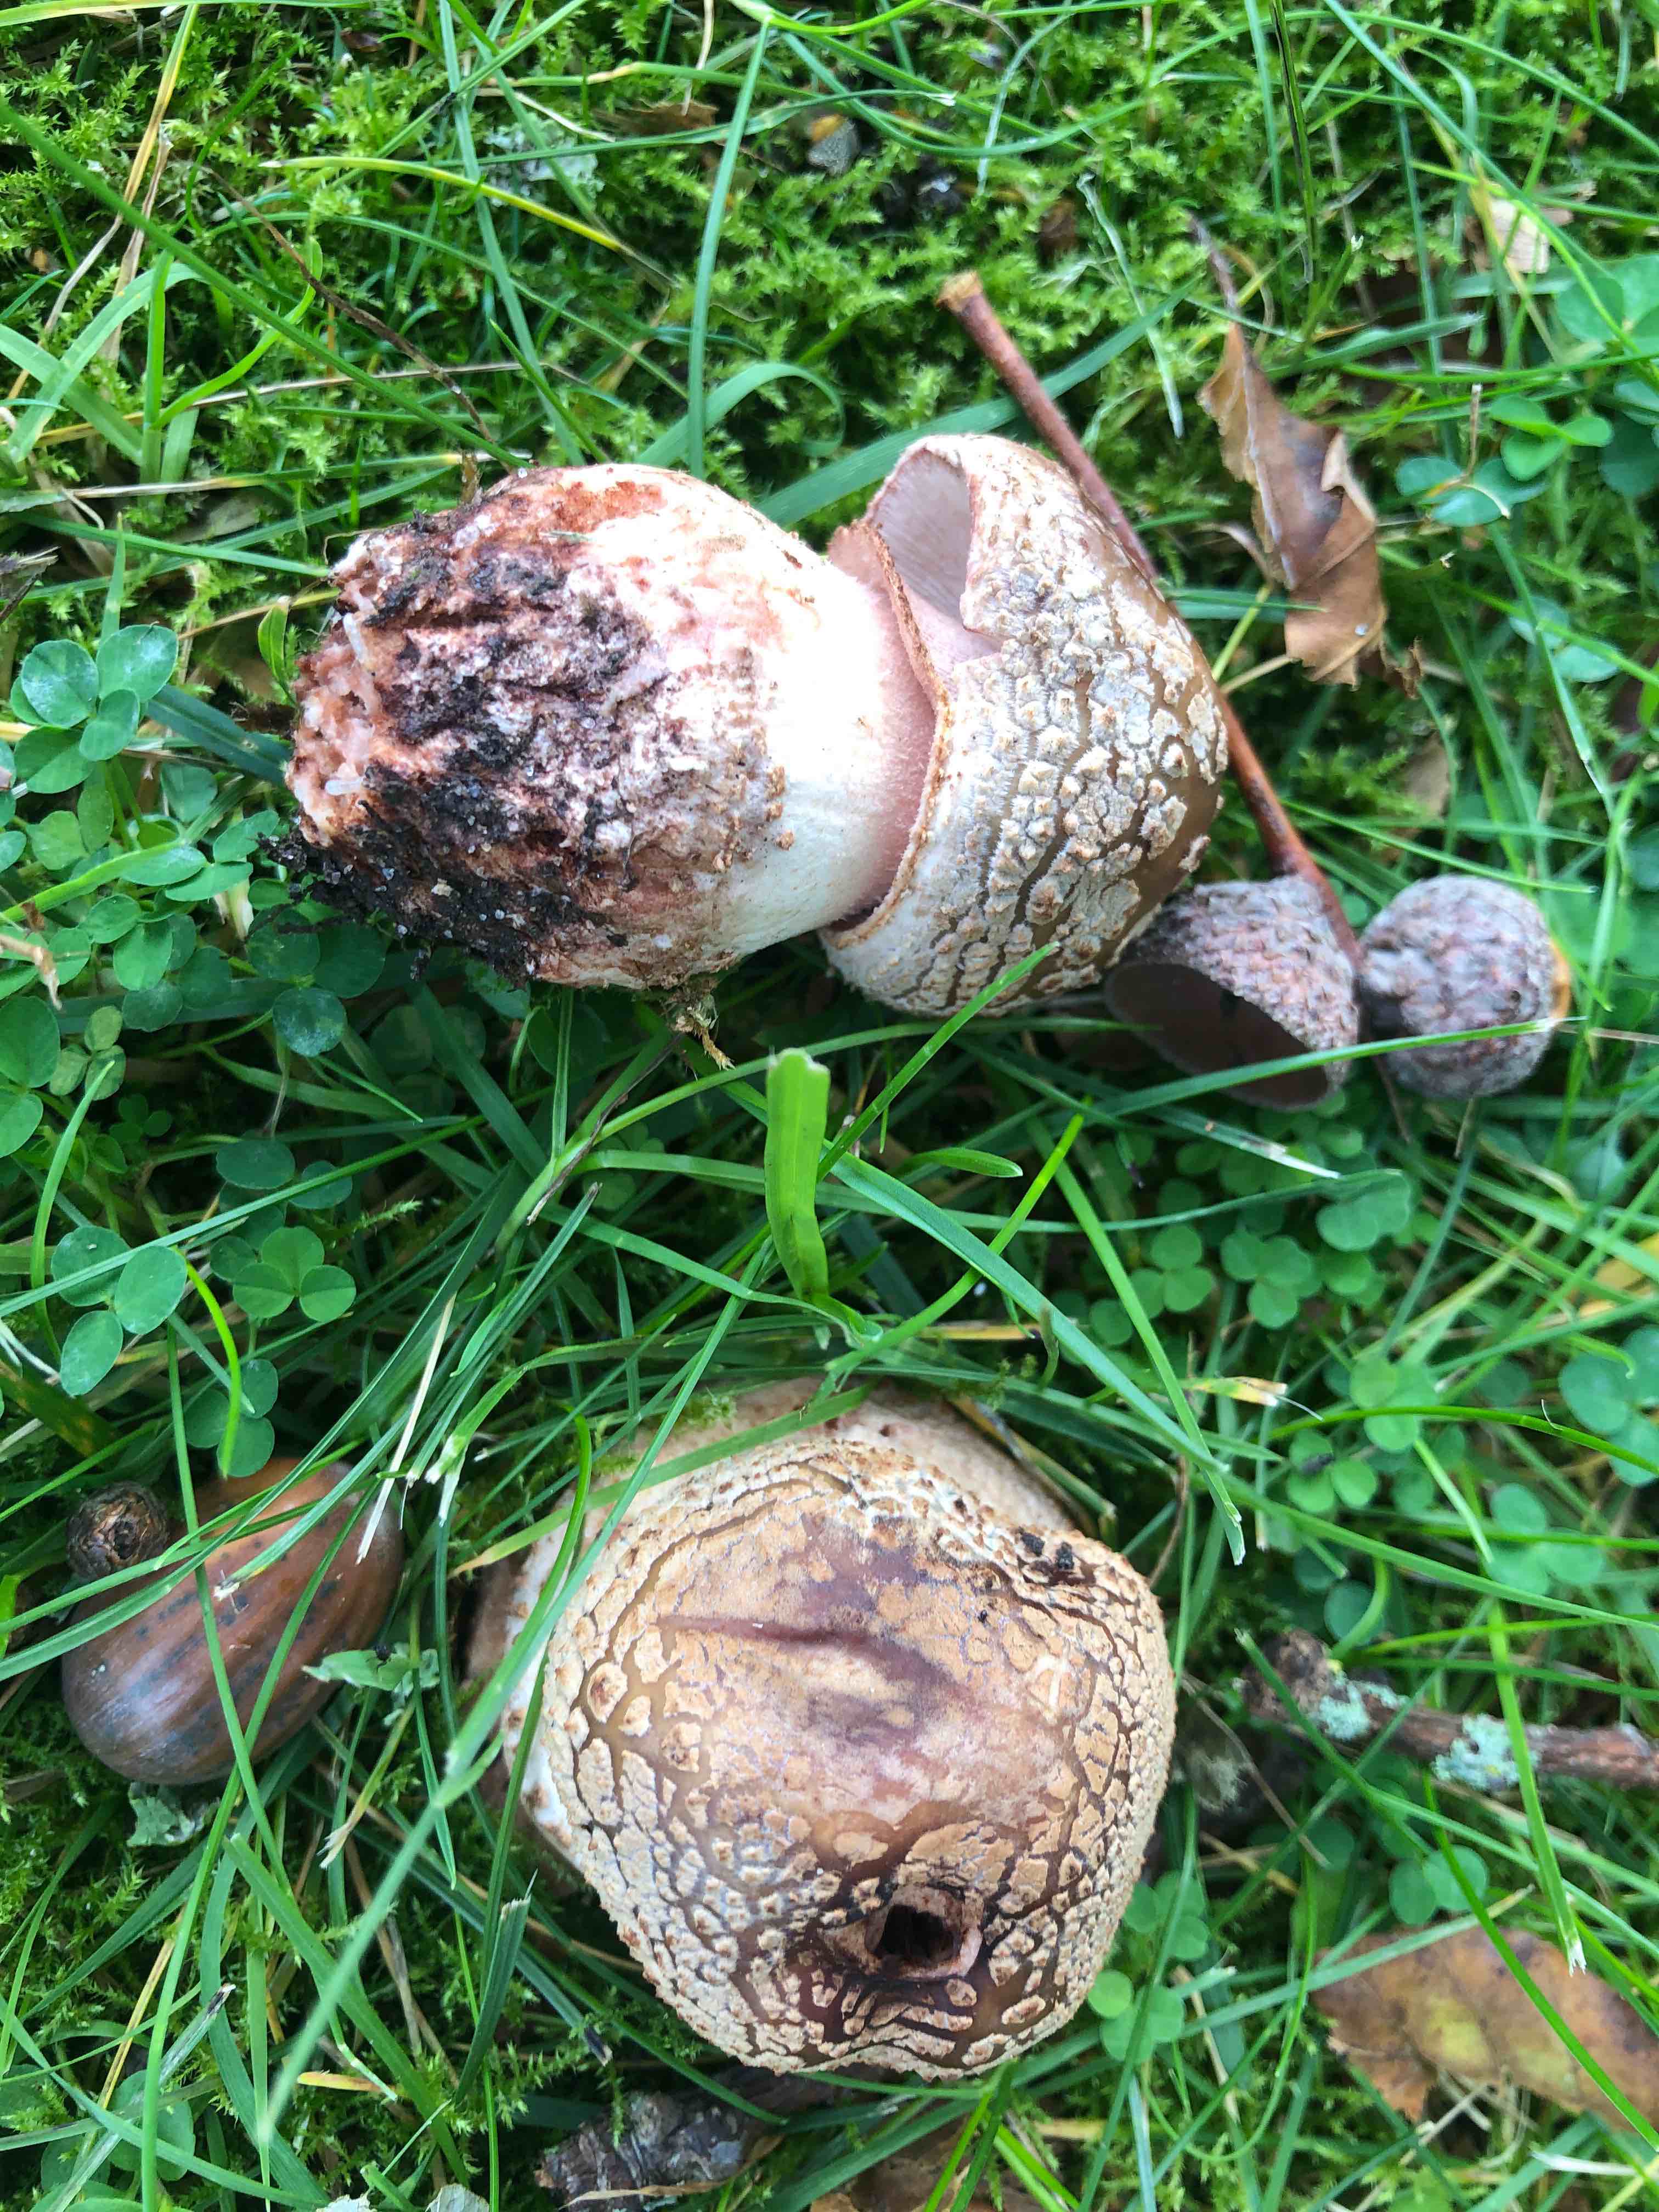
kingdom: Fungi
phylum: Basidiomycota
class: Agaricomycetes
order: Agaricales
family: Amanitaceae
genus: Amanita
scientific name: Amanita rubescens
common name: rødmende fluesvamp
